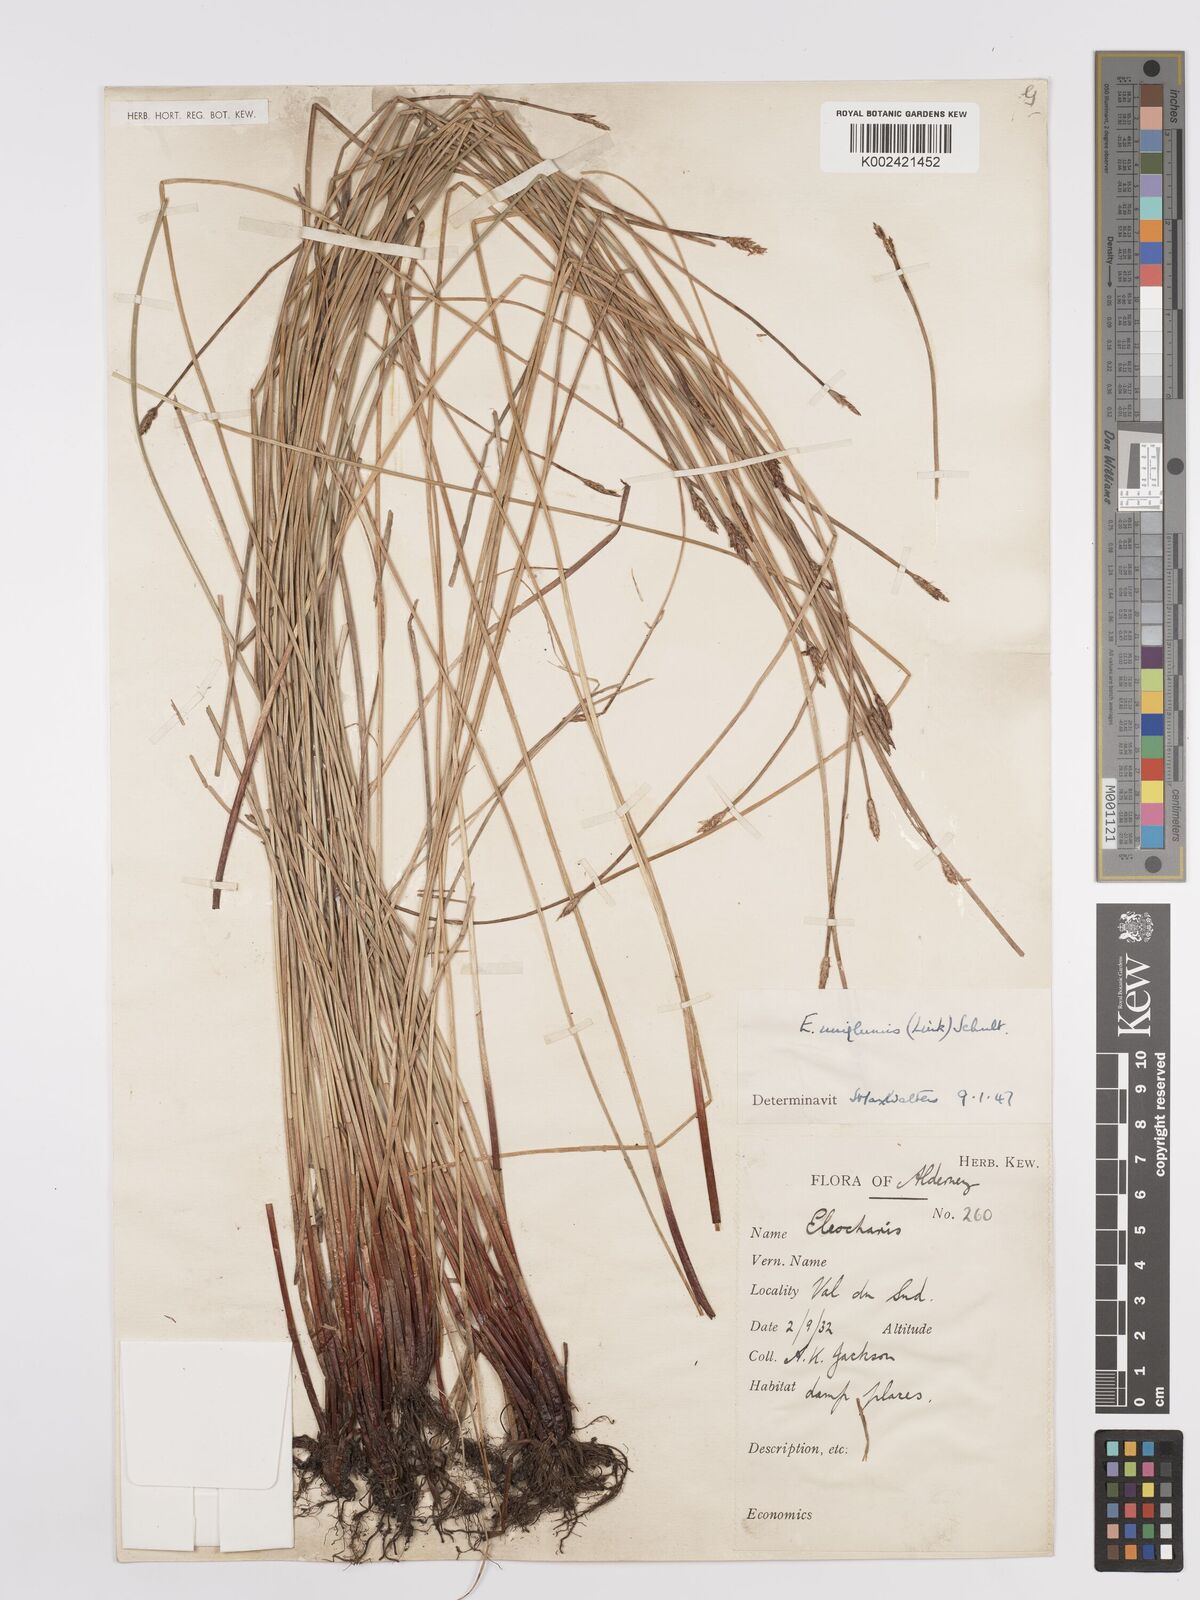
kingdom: Plantae
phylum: Tracheophyta
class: Liliopsida
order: Poales
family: Cyperaceae
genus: Eleocharis
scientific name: Eleocharis uniglumis
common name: Slender spike-rush
